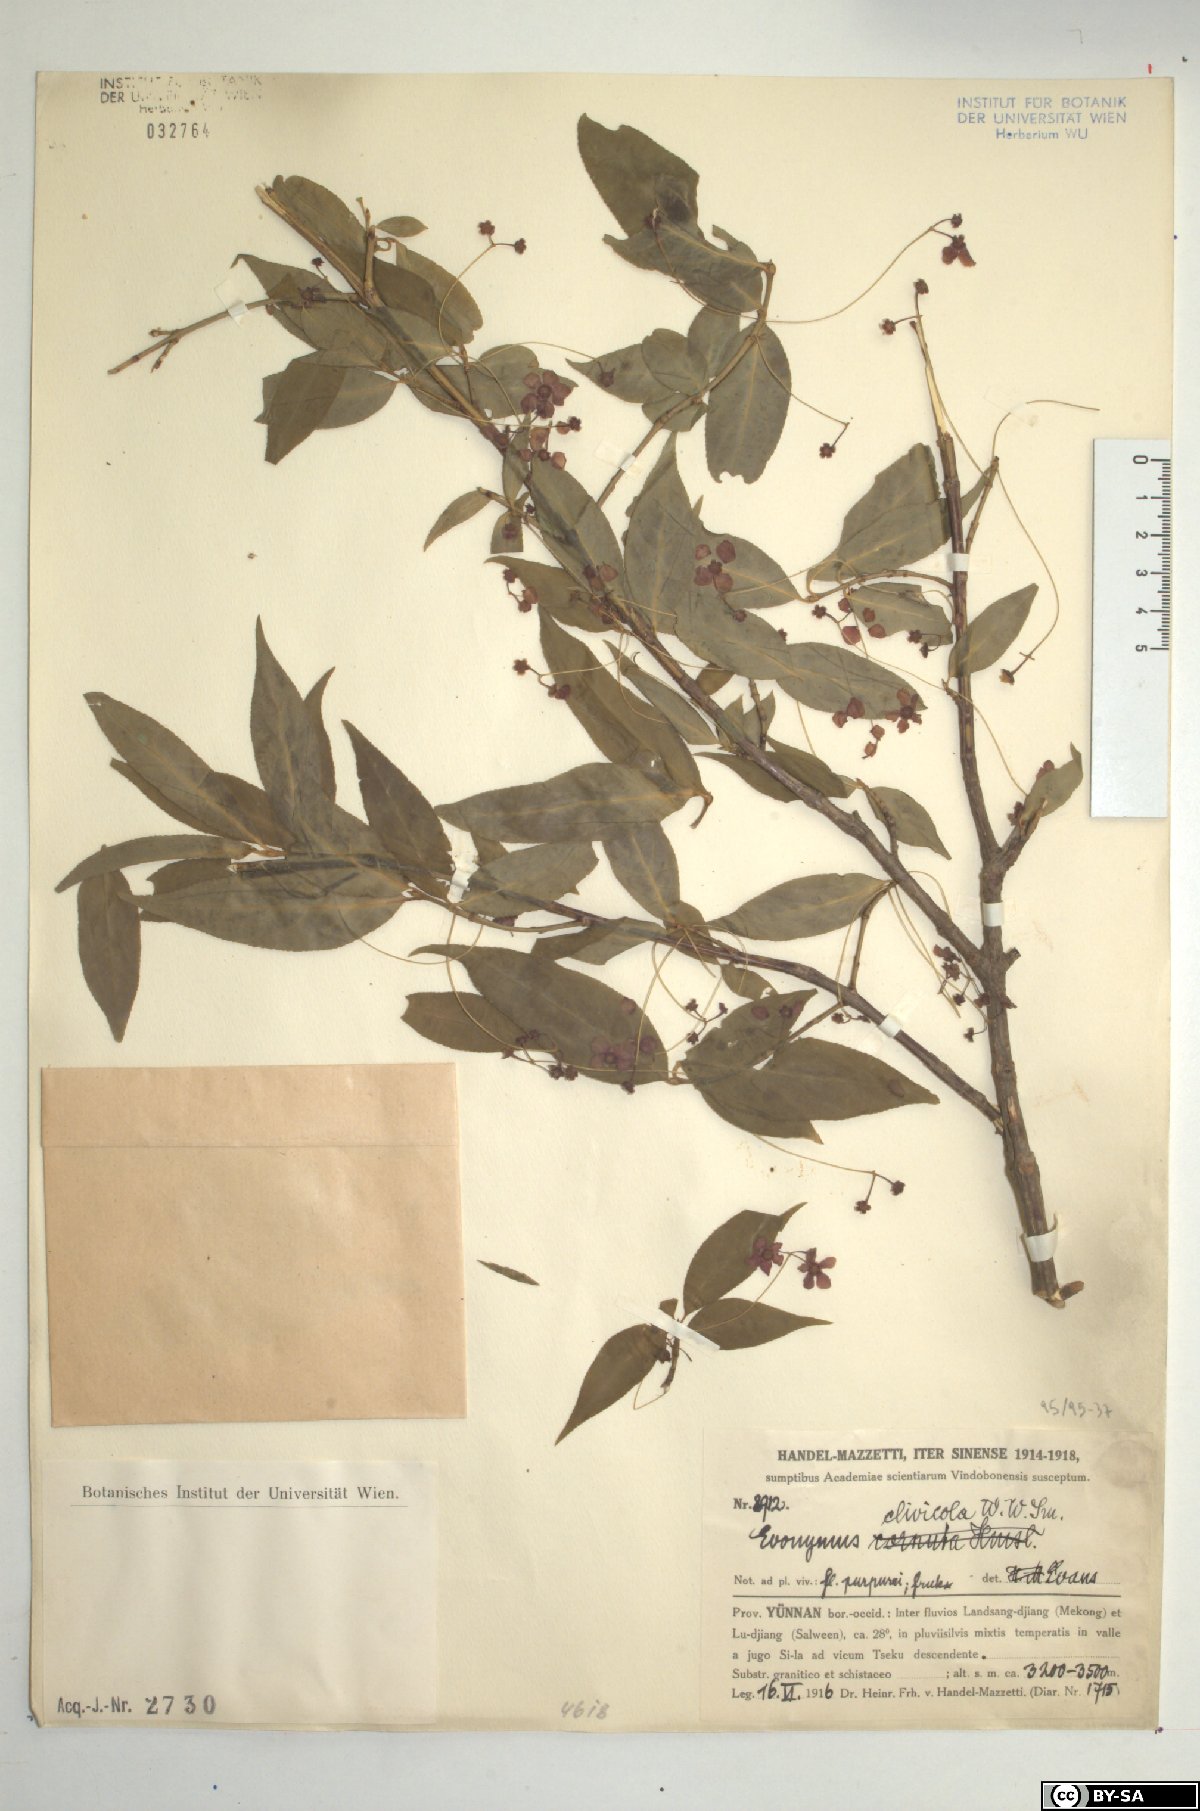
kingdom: Plantae
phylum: Tracheophyta
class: Magnoliopsida
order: Celastrales
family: Celastraceae
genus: Euonymus
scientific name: Euonymus clivicolus
